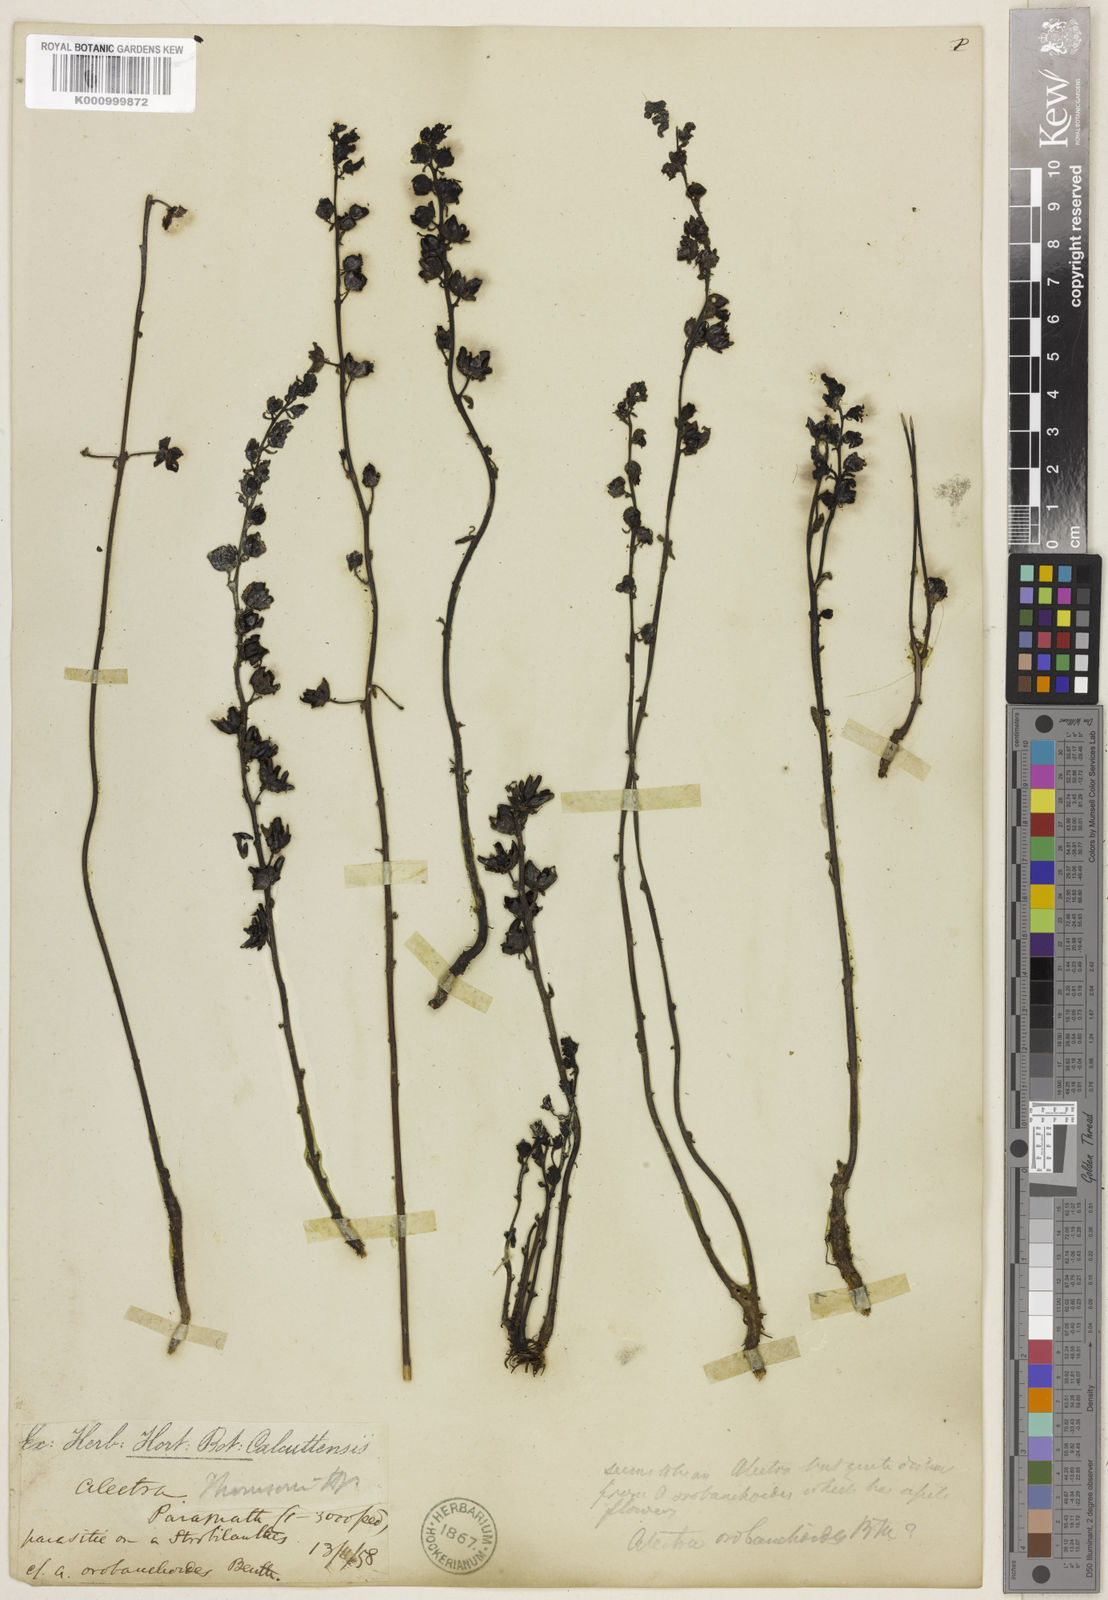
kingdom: Plantae
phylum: Tracheophyta
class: Magnoliopsida
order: Lamiales
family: Orobanchaceae
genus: Alectra
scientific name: Alectra sessiliflora
